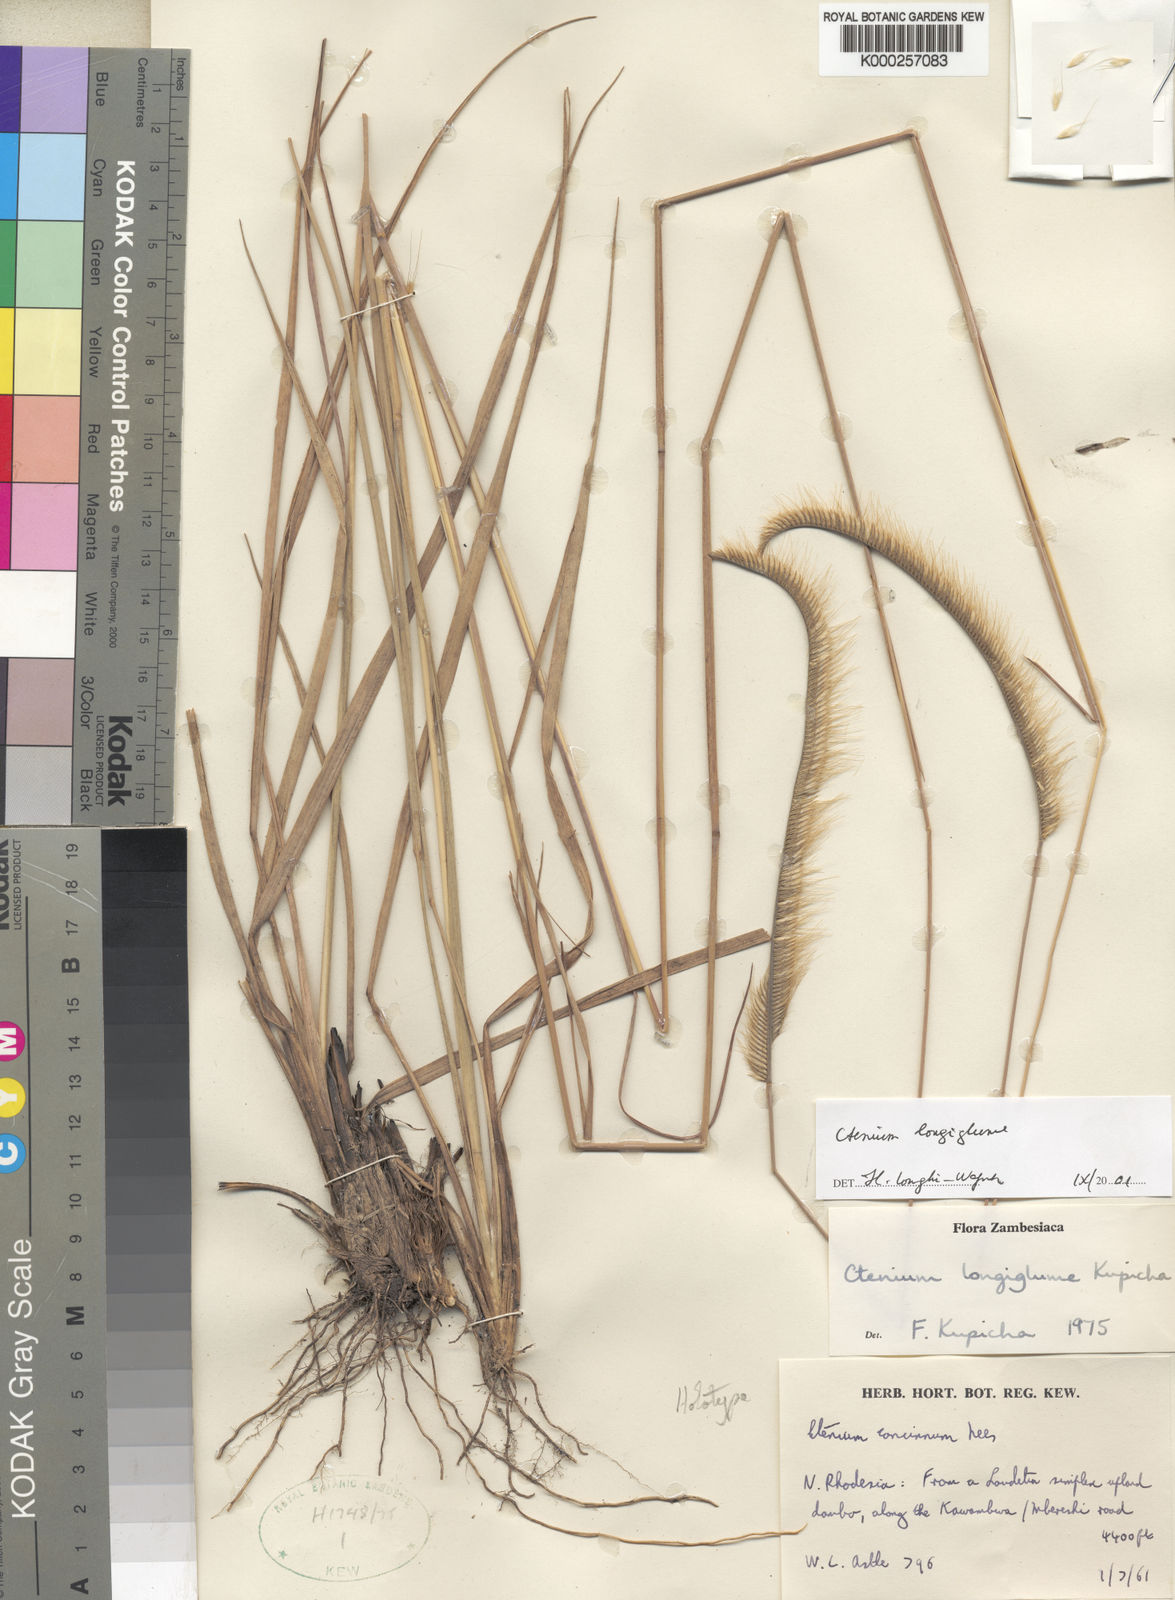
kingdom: Plantae
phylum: Tracheophyta
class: Liliopsida
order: Poales
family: Poaceae
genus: Ctenium
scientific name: Ctenium longiglume
